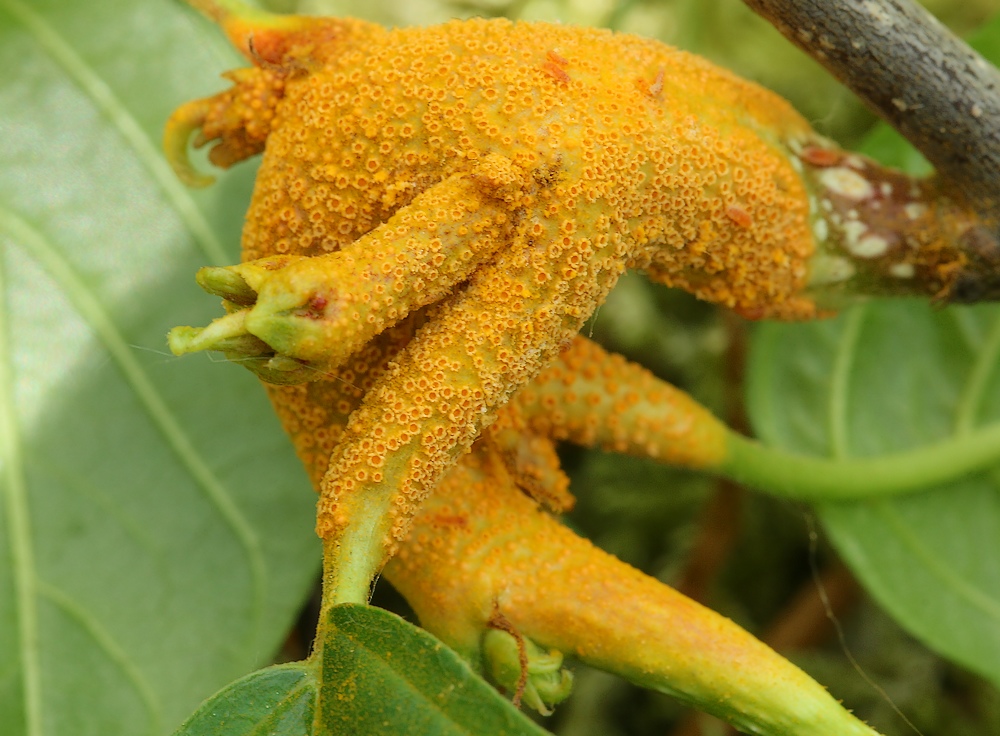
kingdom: Fungi
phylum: Basidiomycota
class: Pucciniomycetes
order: Pucciniales
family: Pucciniaceae
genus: Puccinia
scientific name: Puccinia coronata
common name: Crown rust
